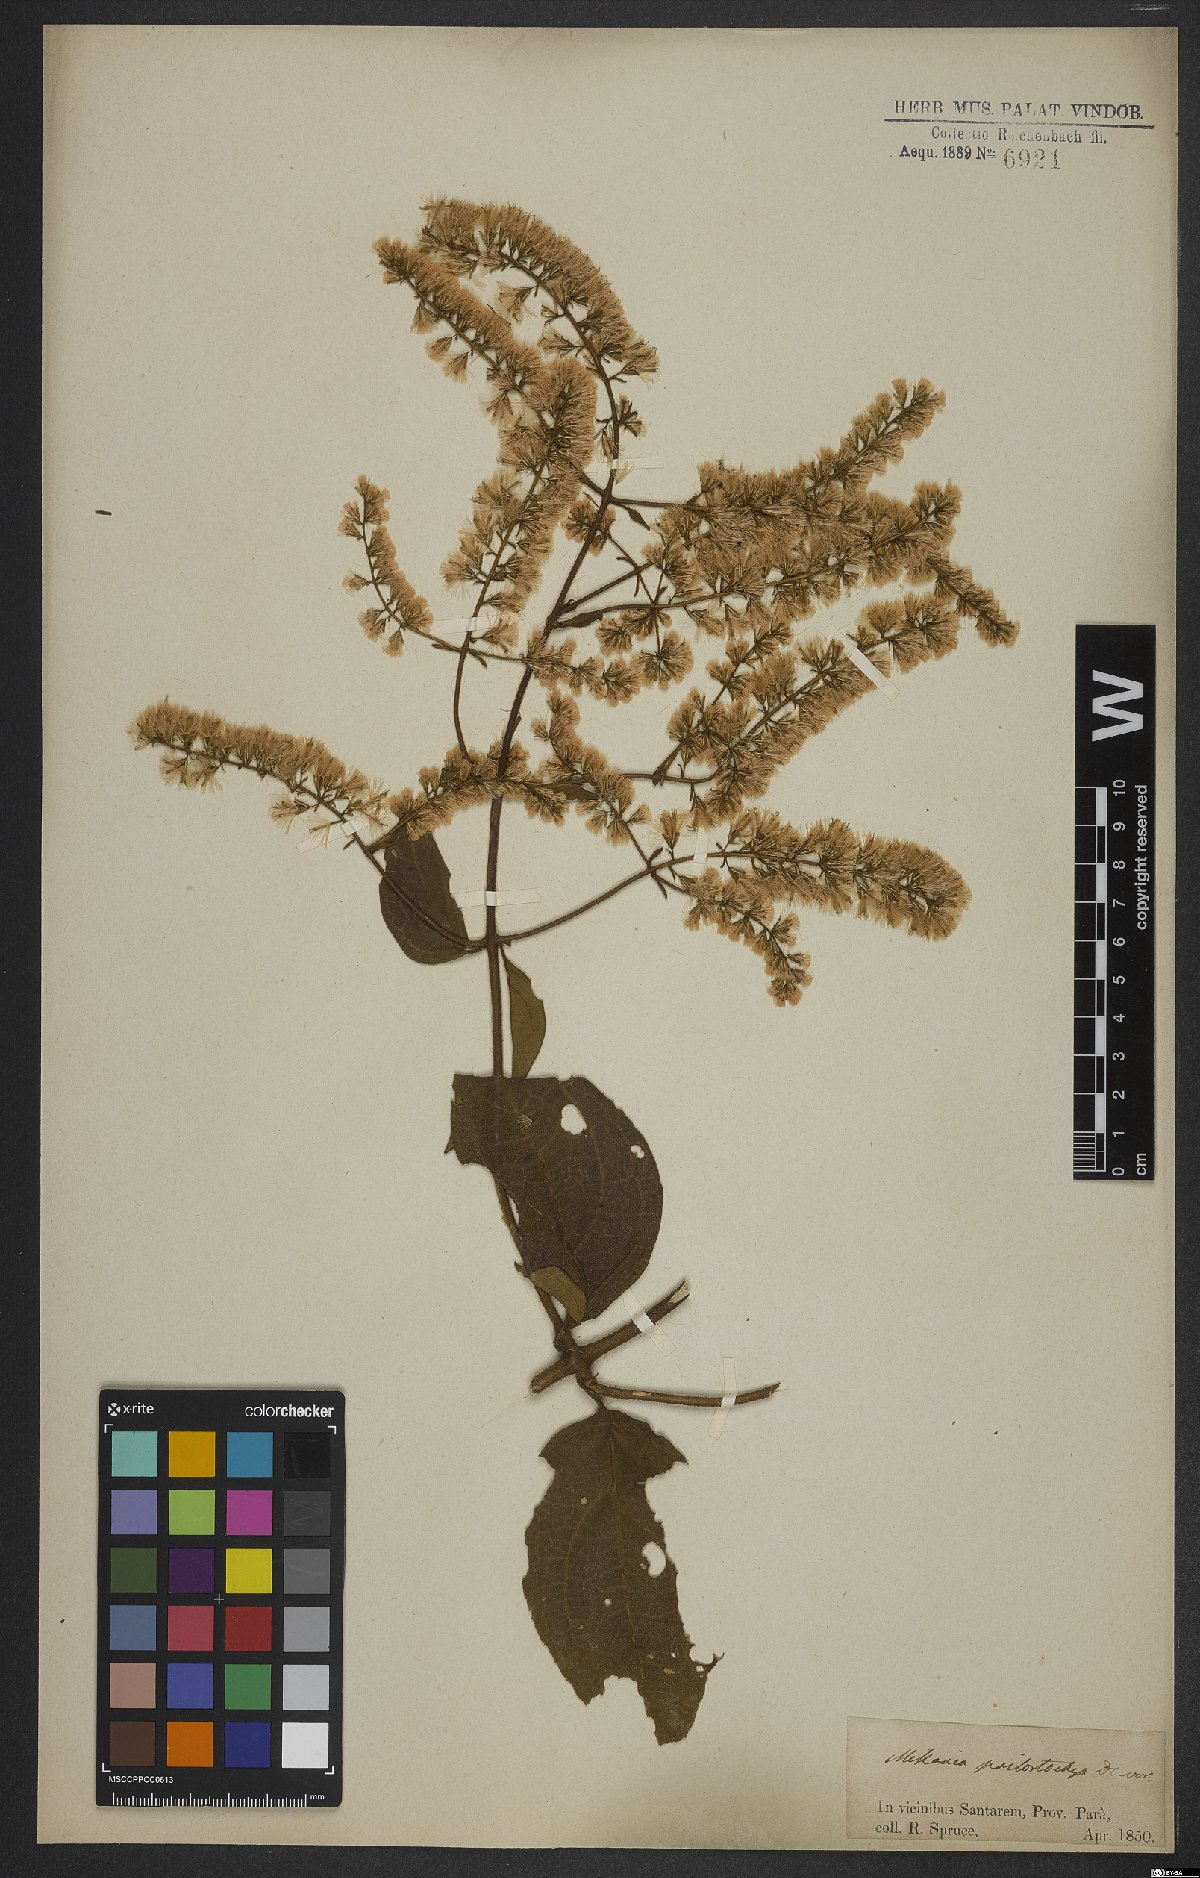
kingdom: Plantae
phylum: Tracheophyta
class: Magnoliopsida
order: Asterales
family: Asteraceae
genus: Mikania
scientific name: Mikania psilostachya
